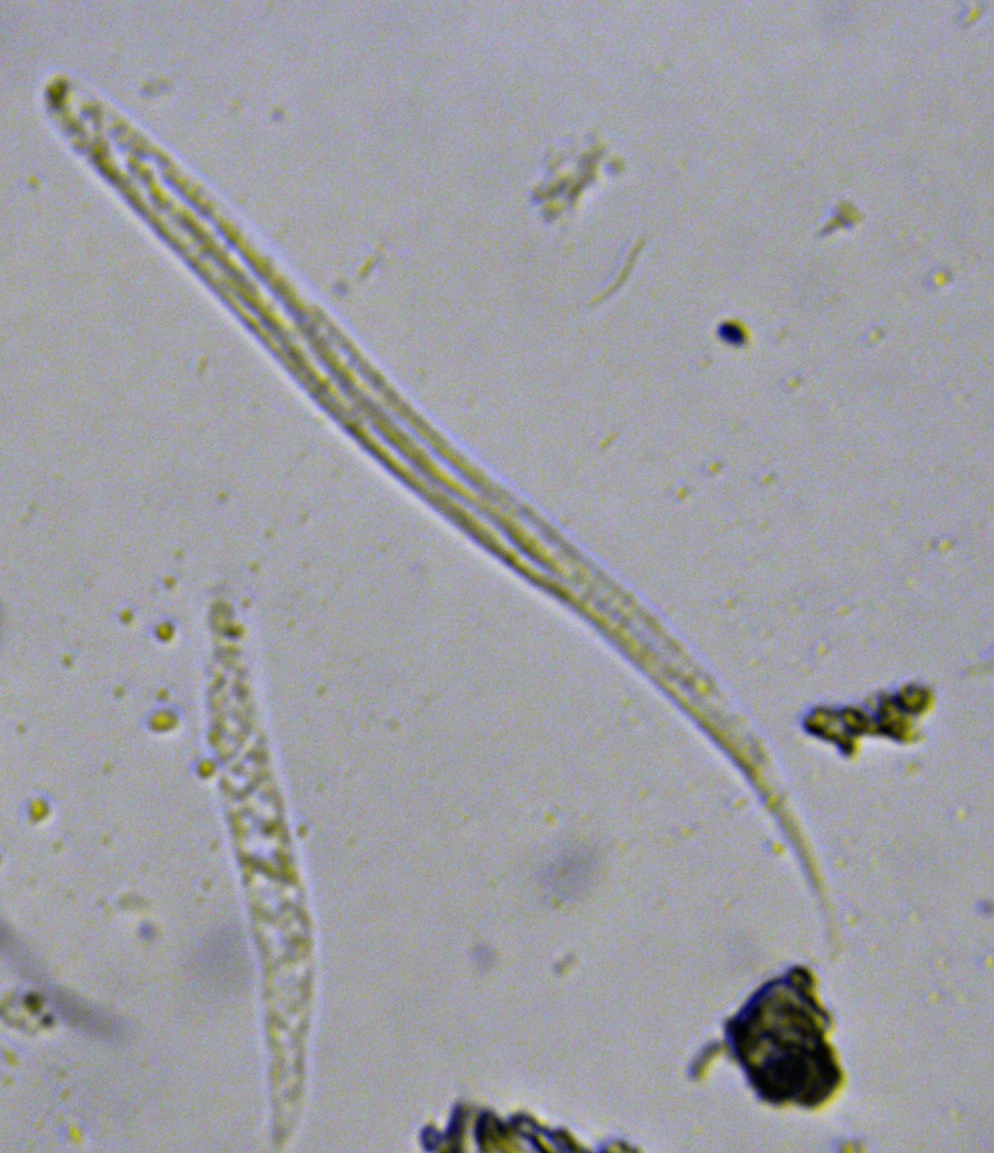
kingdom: Fungi
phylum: Ascomycota
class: Sordariomycetes
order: Diaporthales
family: Gnomoniaceae
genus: Linospora
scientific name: Linospora saligna
